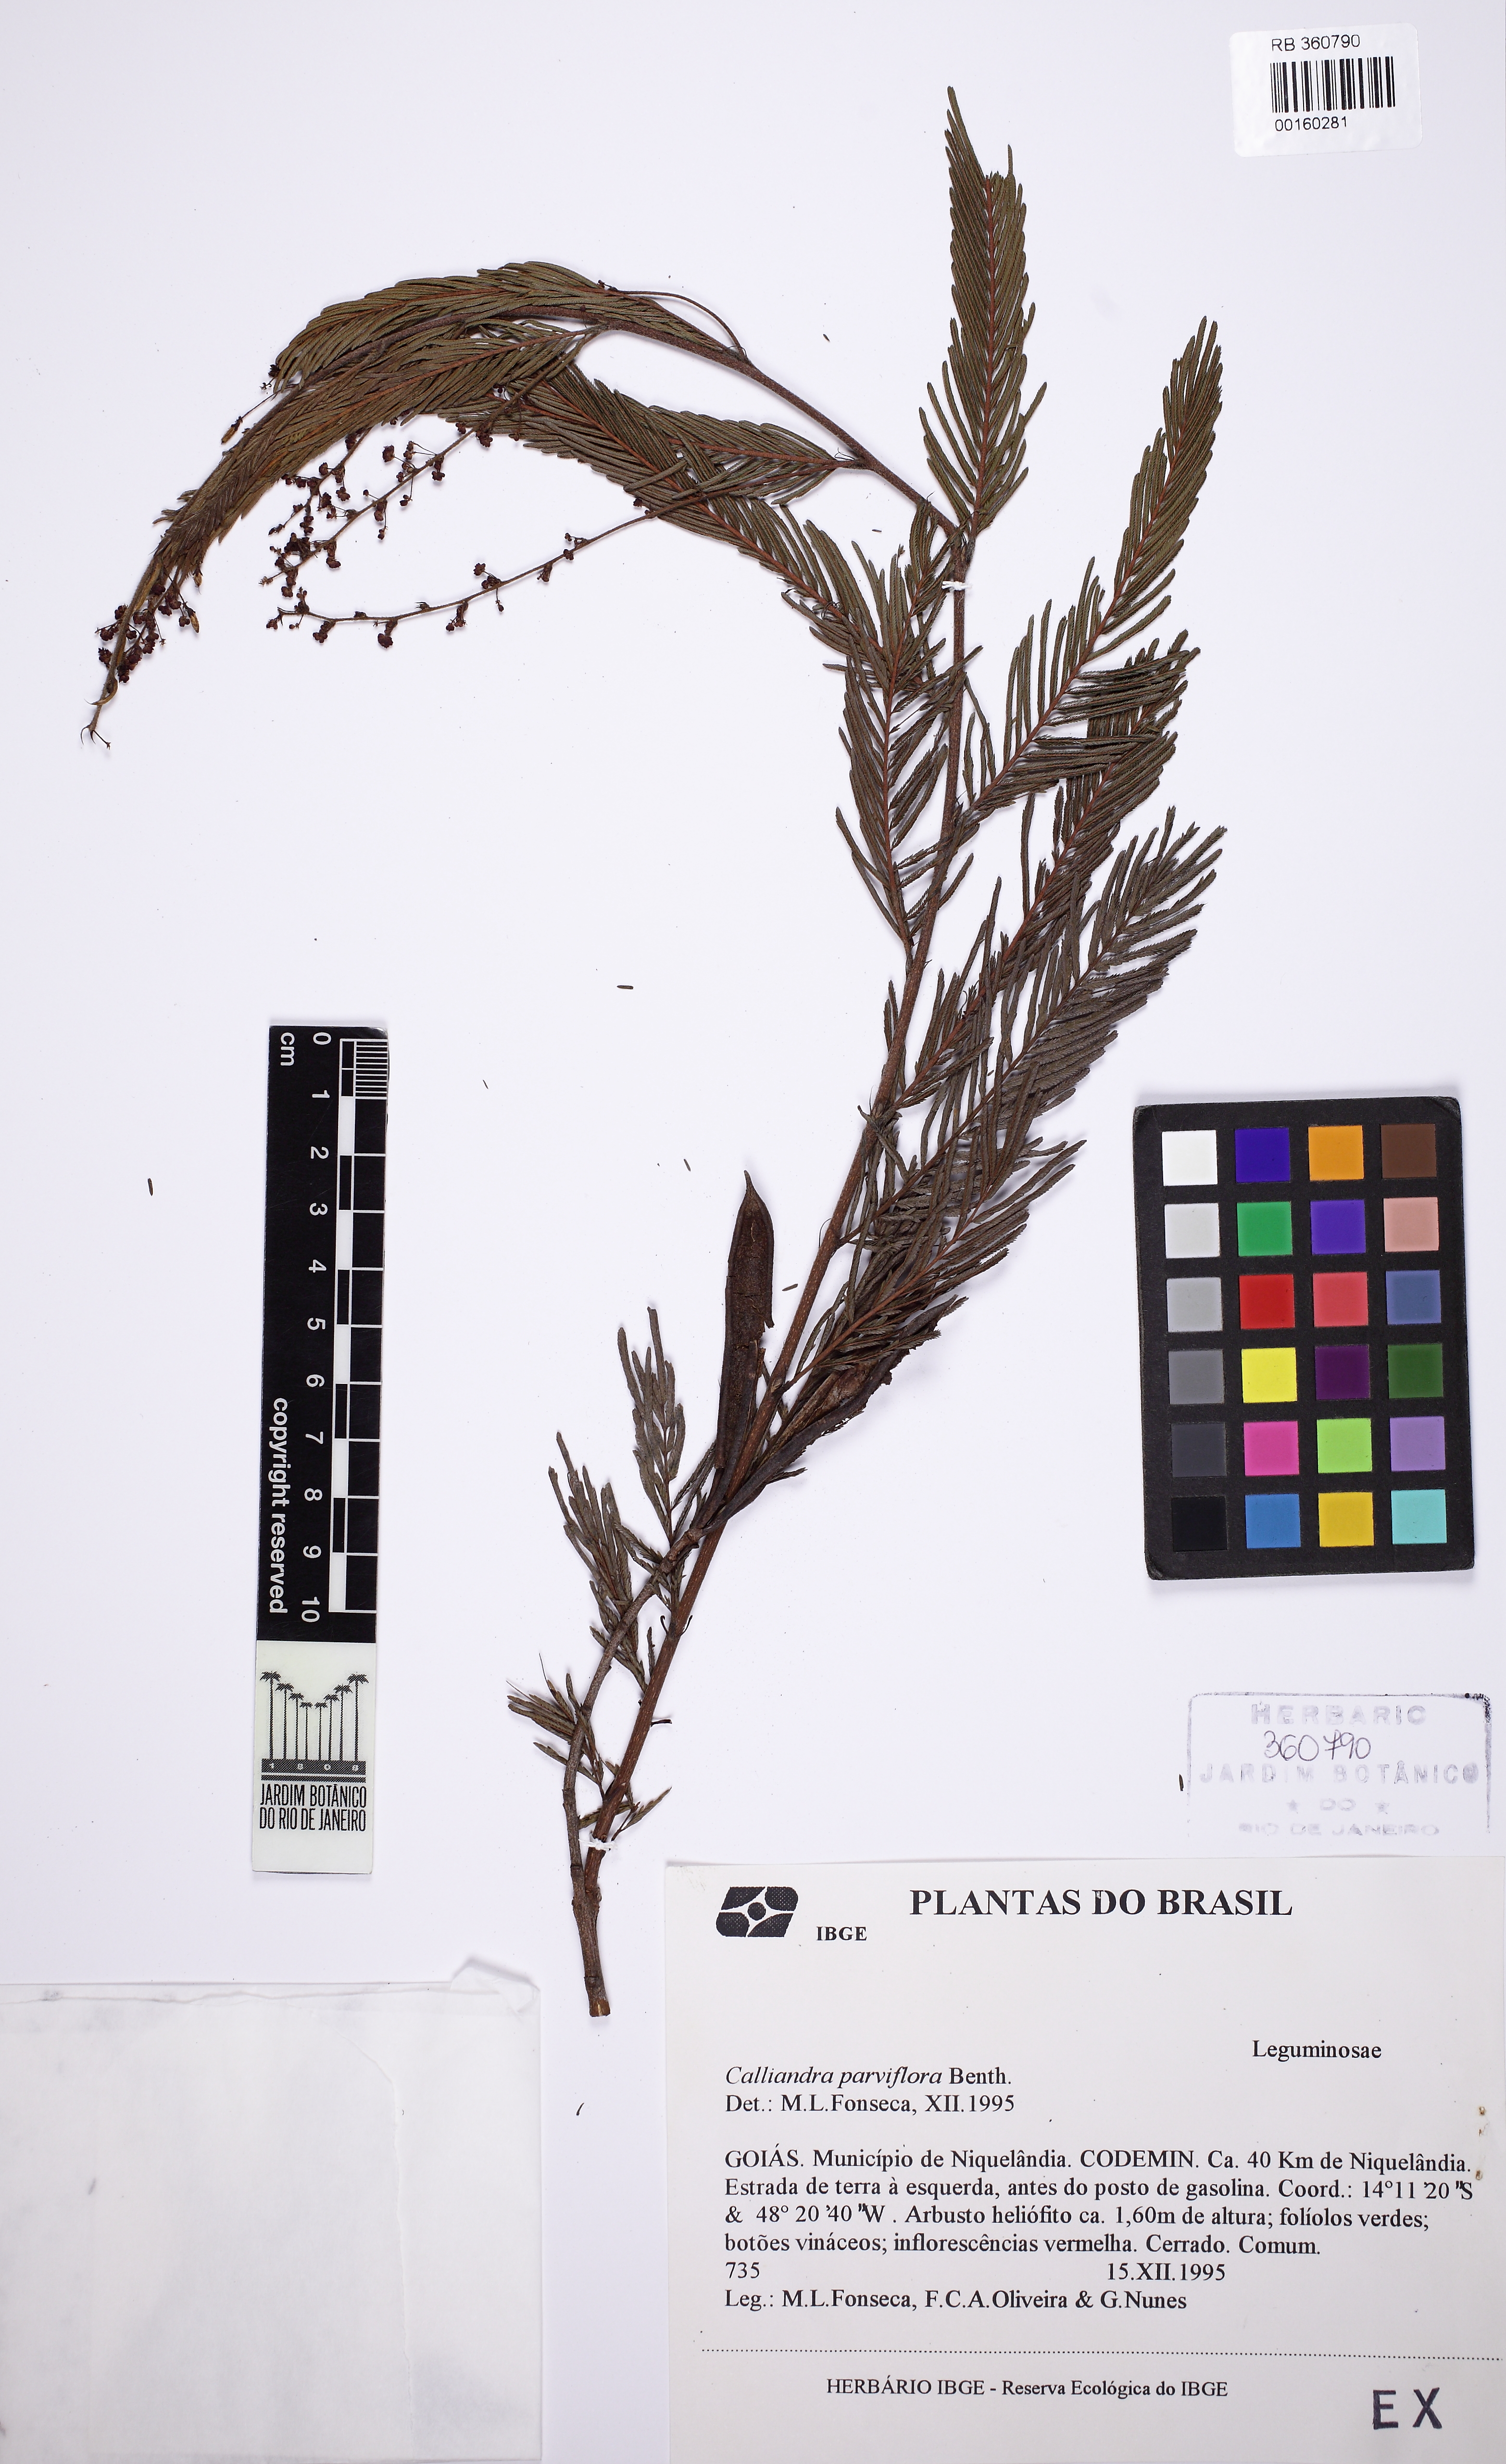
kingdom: Plantae
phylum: Tracheophyta
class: Magnoliopsida
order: Fabales
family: Fabaceae
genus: Calliandra
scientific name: Calliandra parviflora
